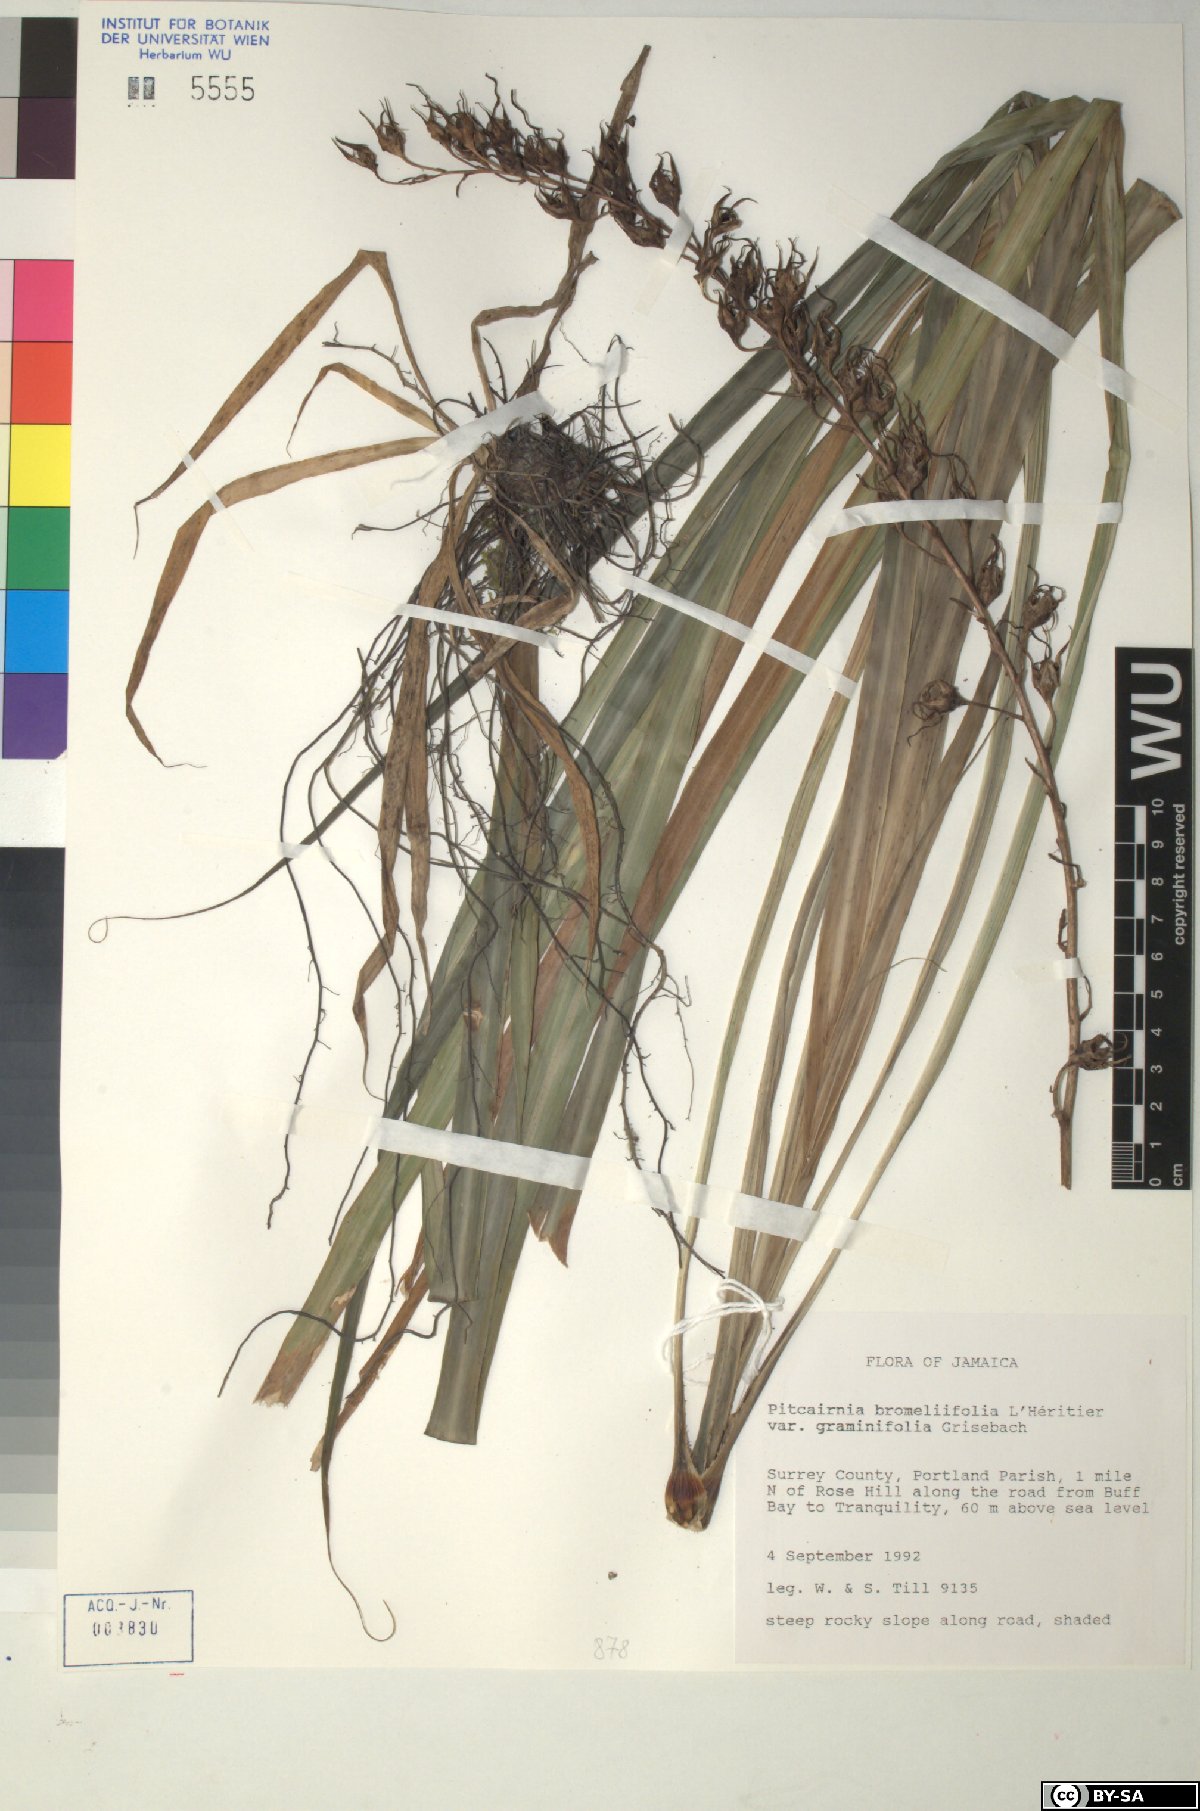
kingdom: Plantae
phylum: Tracheophyta
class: Liliopsida
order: Poales
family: Bromeliaceae
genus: Pitcairnia
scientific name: Pitcairnia bromeliifolia
